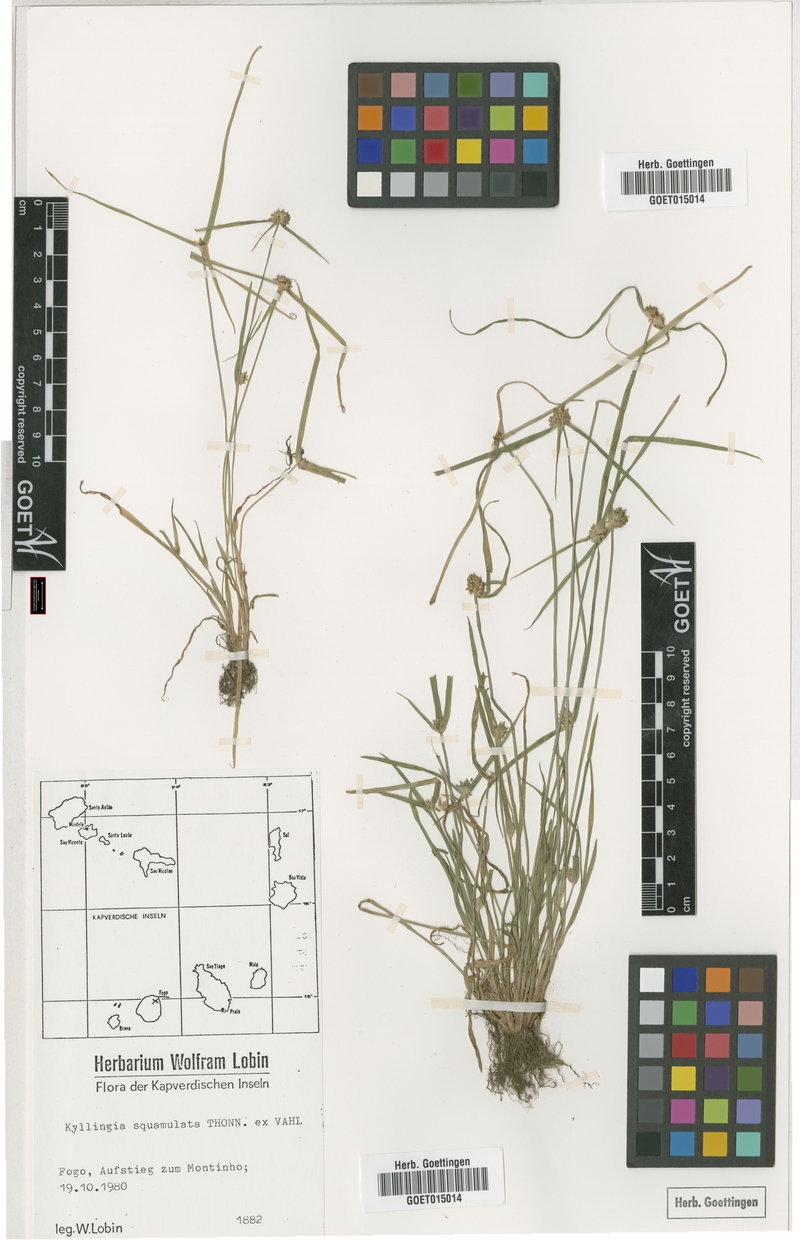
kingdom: Plantae
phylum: Tracheophyta
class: Liliopsida
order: Poales
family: Cyperaceae
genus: Cyperus
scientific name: Cyperus metzii
